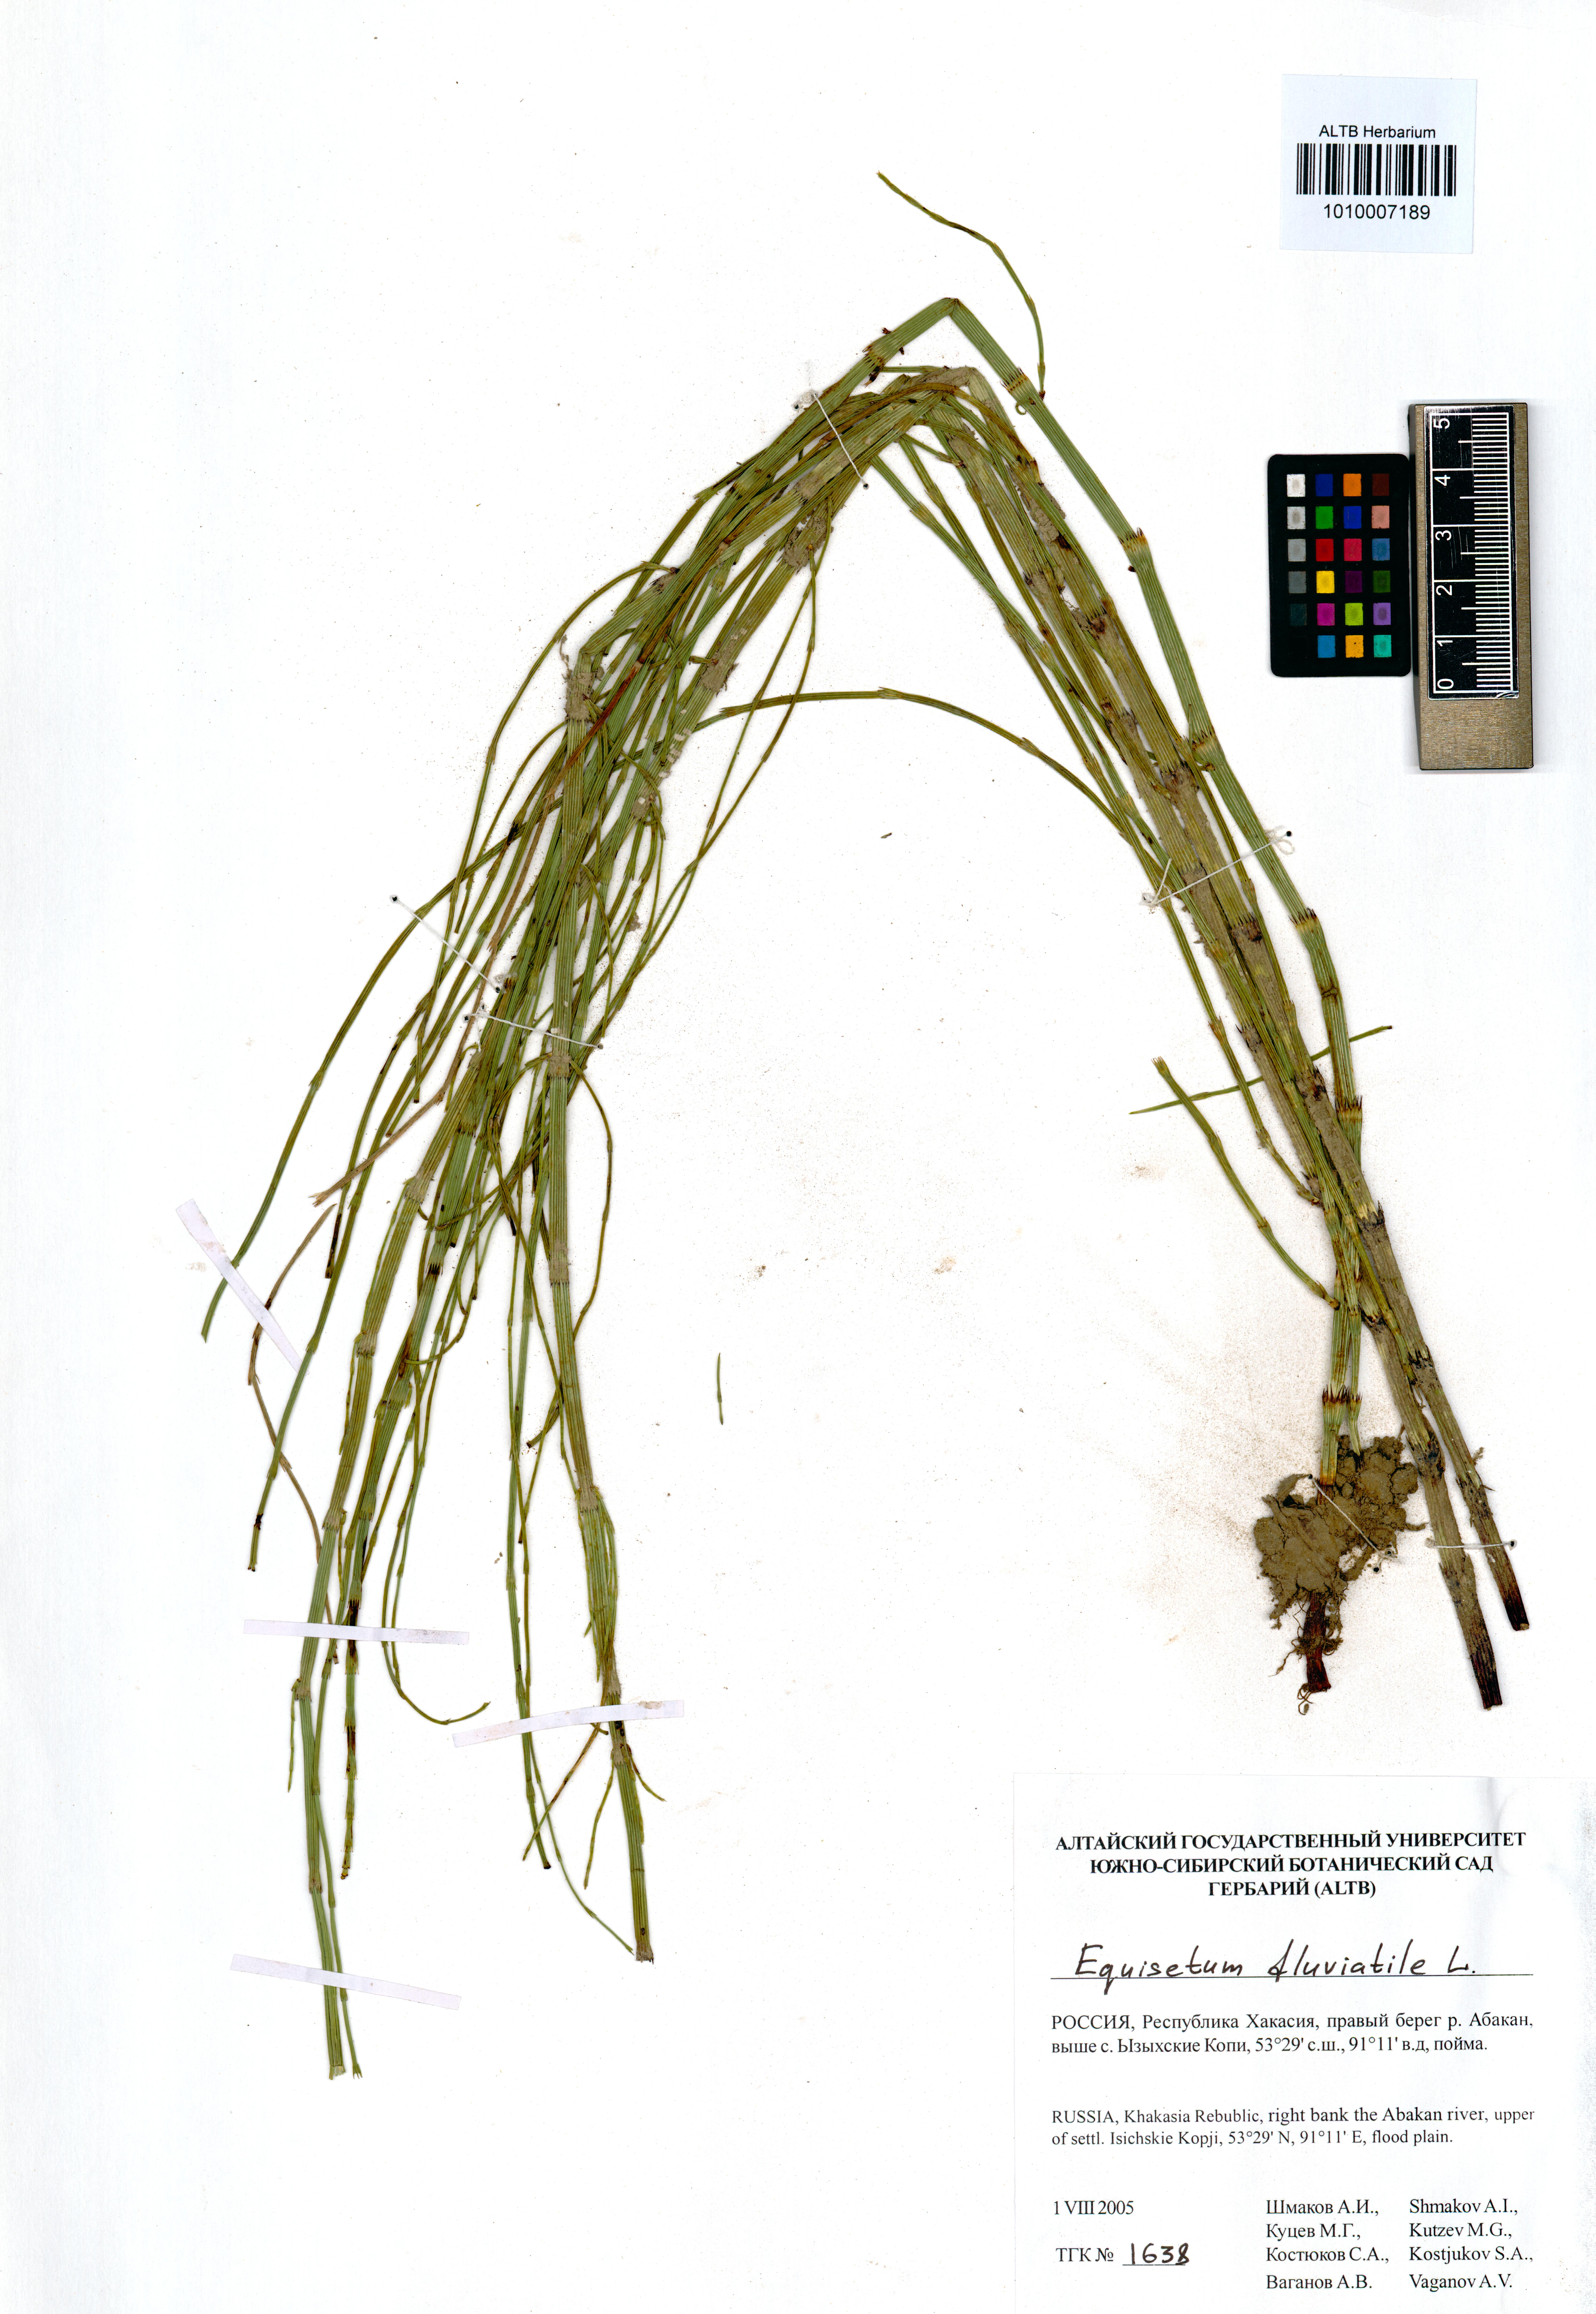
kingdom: Plantae
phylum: Tracheophyta
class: Polypodiopsida
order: Equisetales
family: Equisetaceae
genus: Equisetum
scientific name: Equisetum fluviatile
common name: Water horsetail
